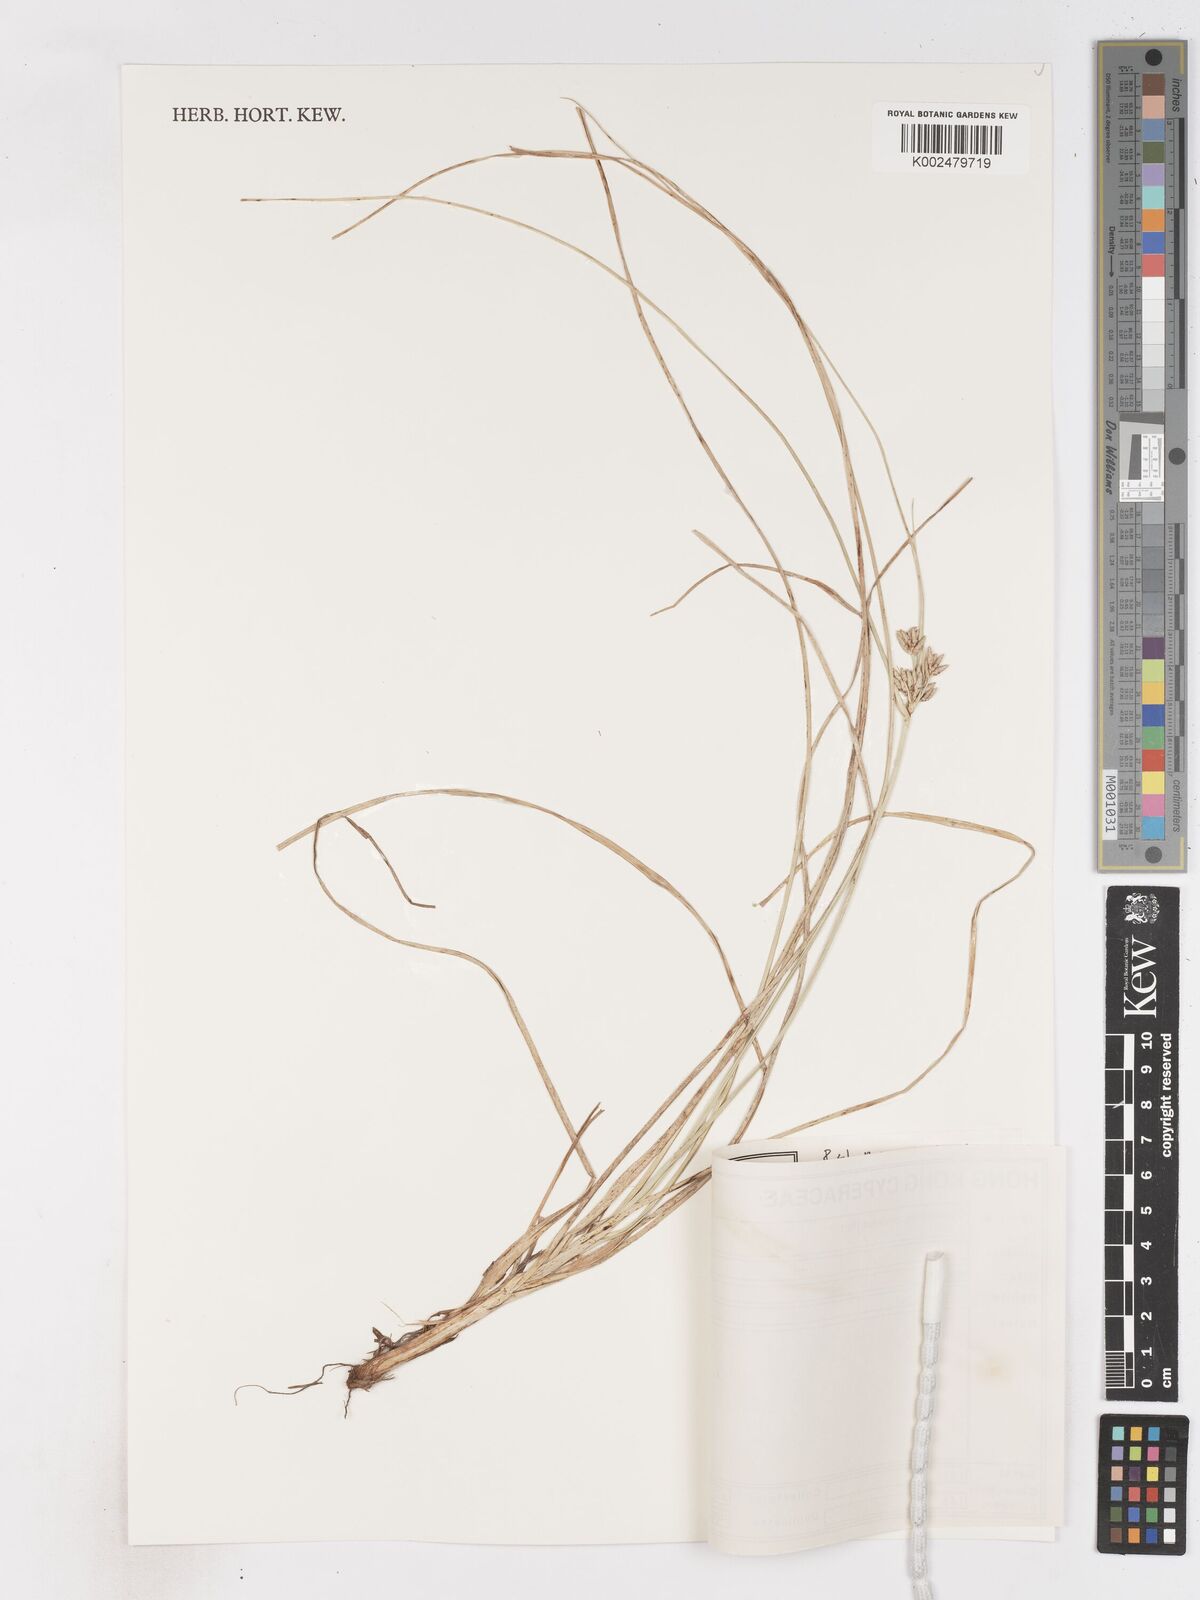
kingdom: Plantae
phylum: Tracheophyta
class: Liliopsida
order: Poales
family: Cyperaceae
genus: Cyperus
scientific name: Cyperus stolonifer
